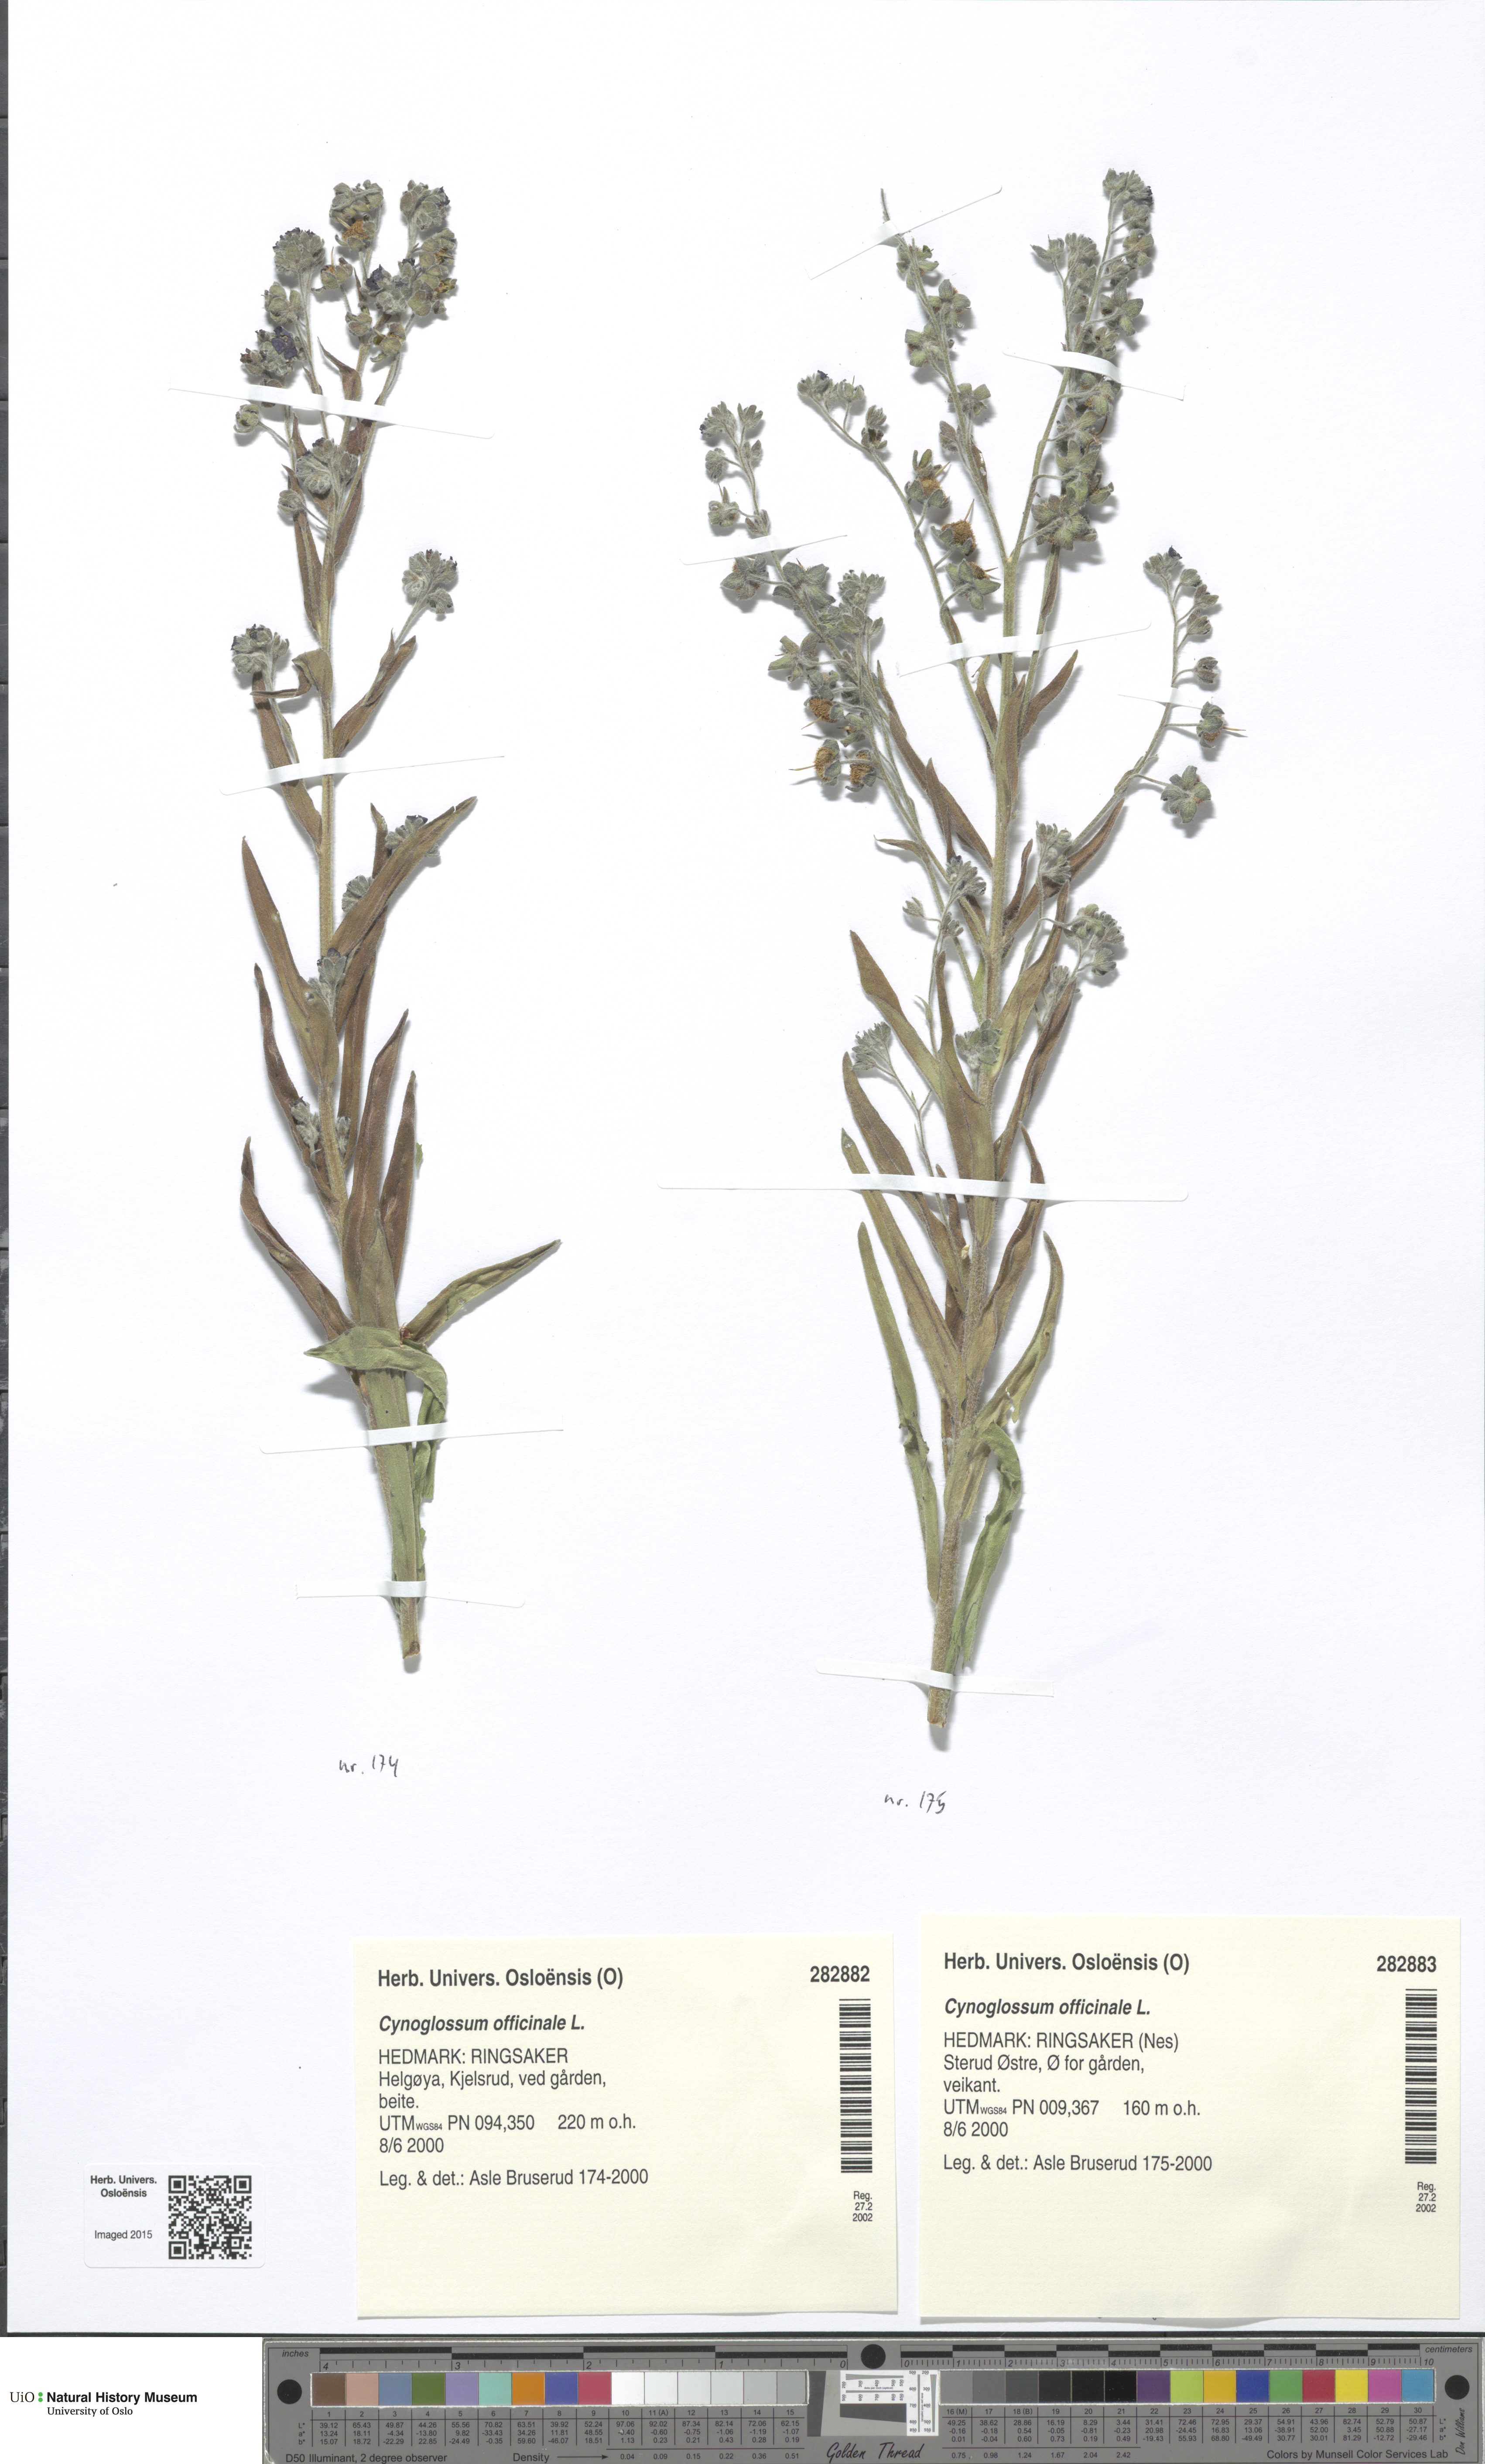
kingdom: Plantae
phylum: Tracheophyta
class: Magnoliopsida
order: Boraginales
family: Boraginaceae
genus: Cynoglossum
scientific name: Cynoglossum officinale
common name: Hound's-tongue
